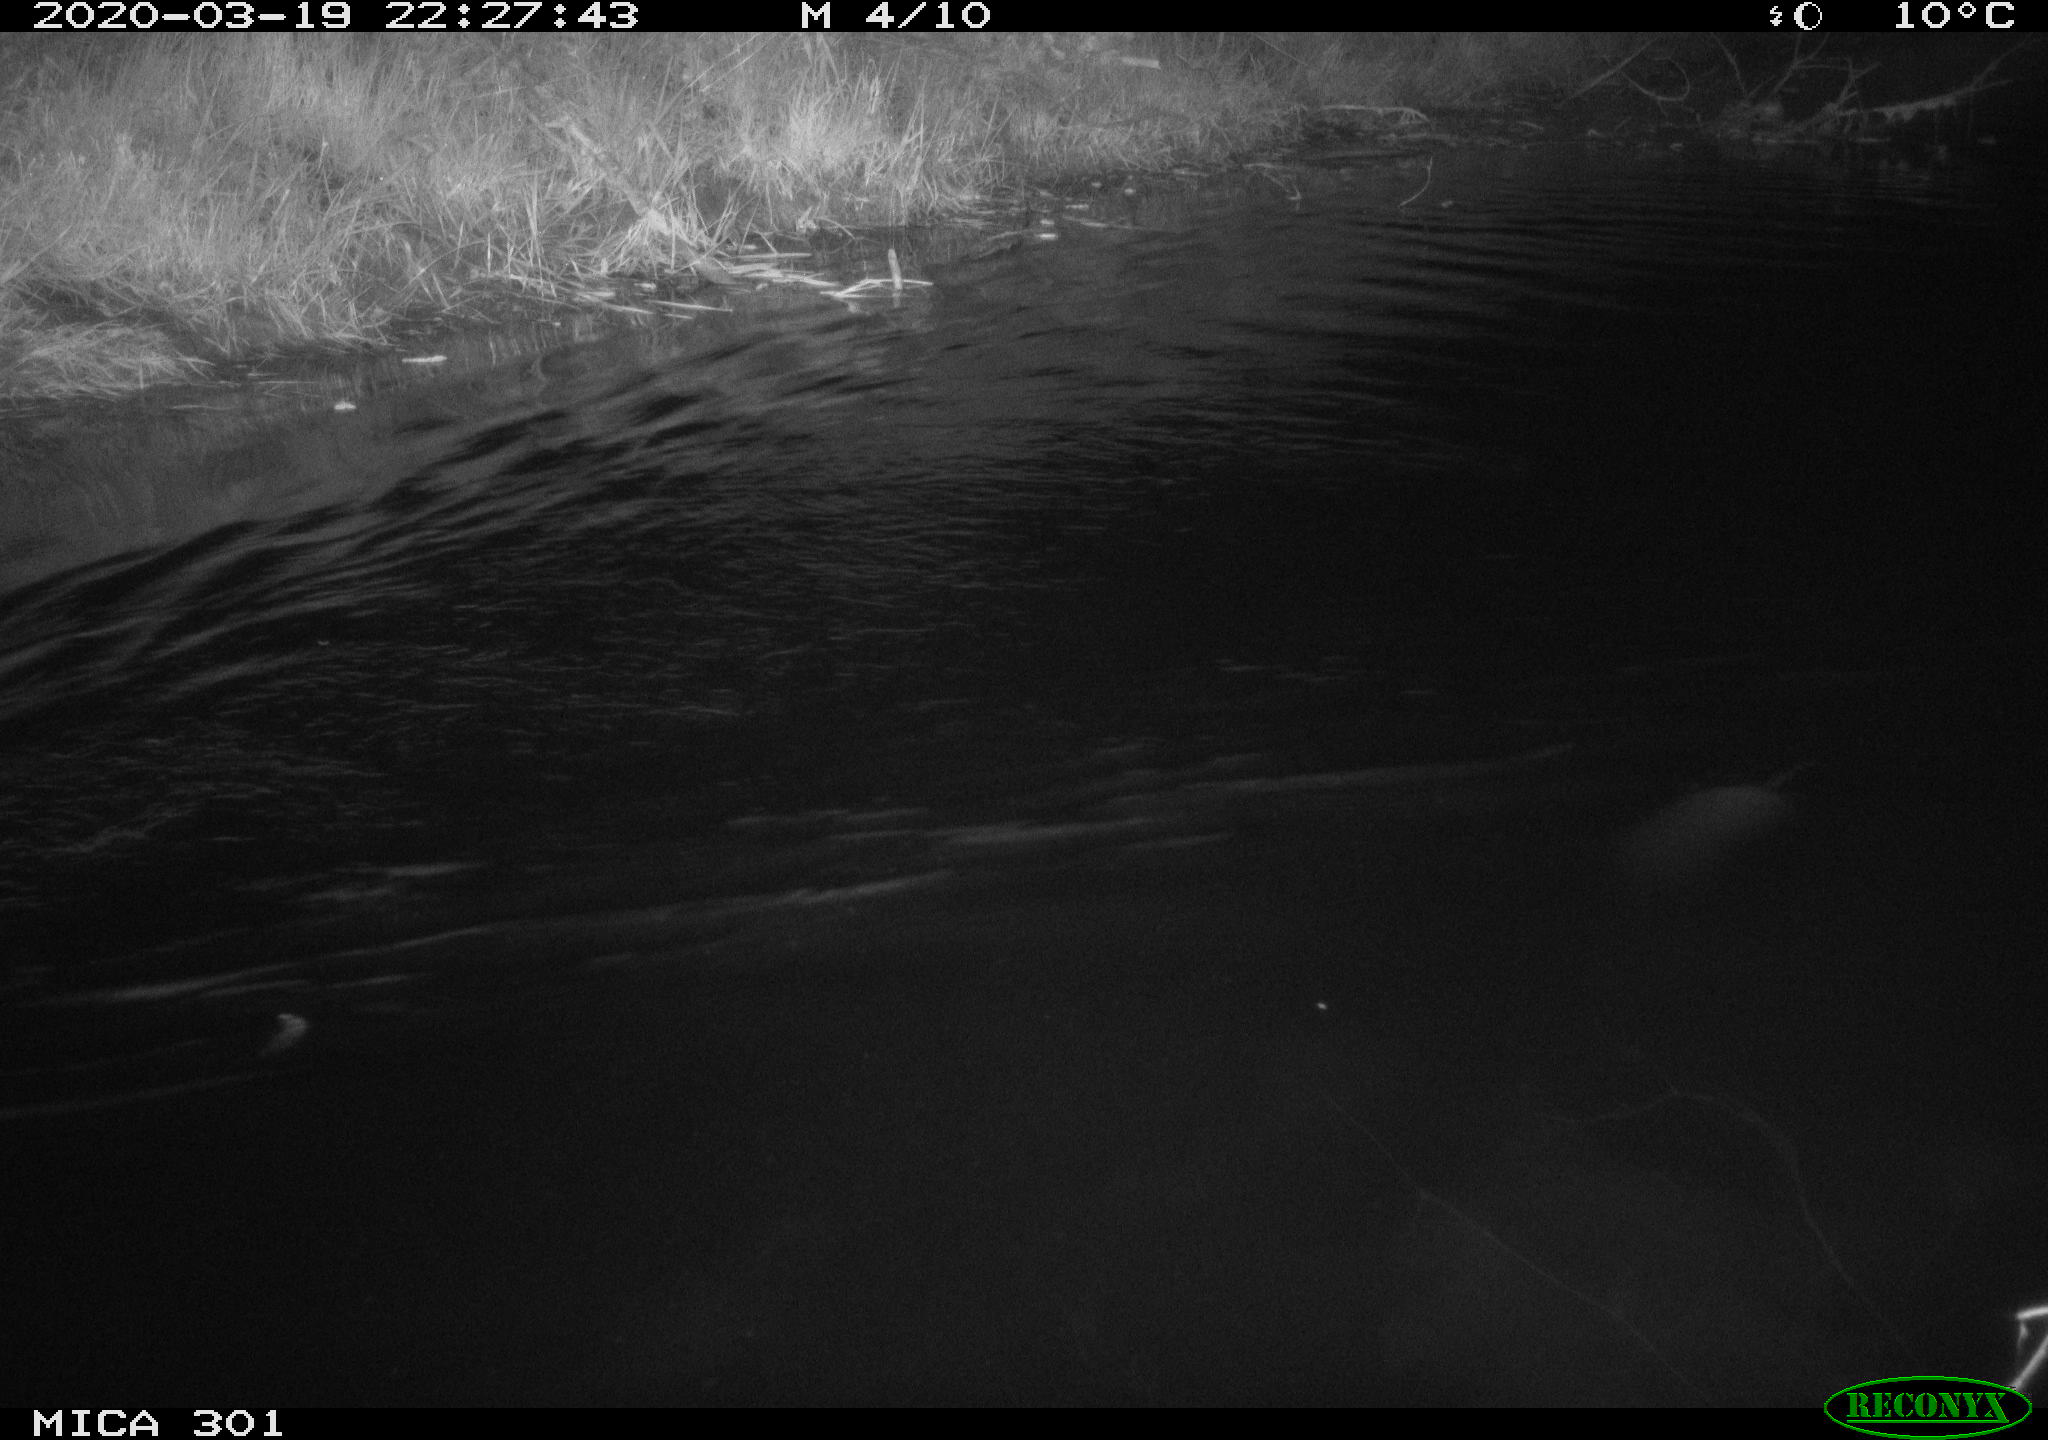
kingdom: Animalia
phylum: Chordata
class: Mammalia
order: Rodentia
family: Castoridae
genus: Castor
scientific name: Castor fiber
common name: Eurasian beaver
